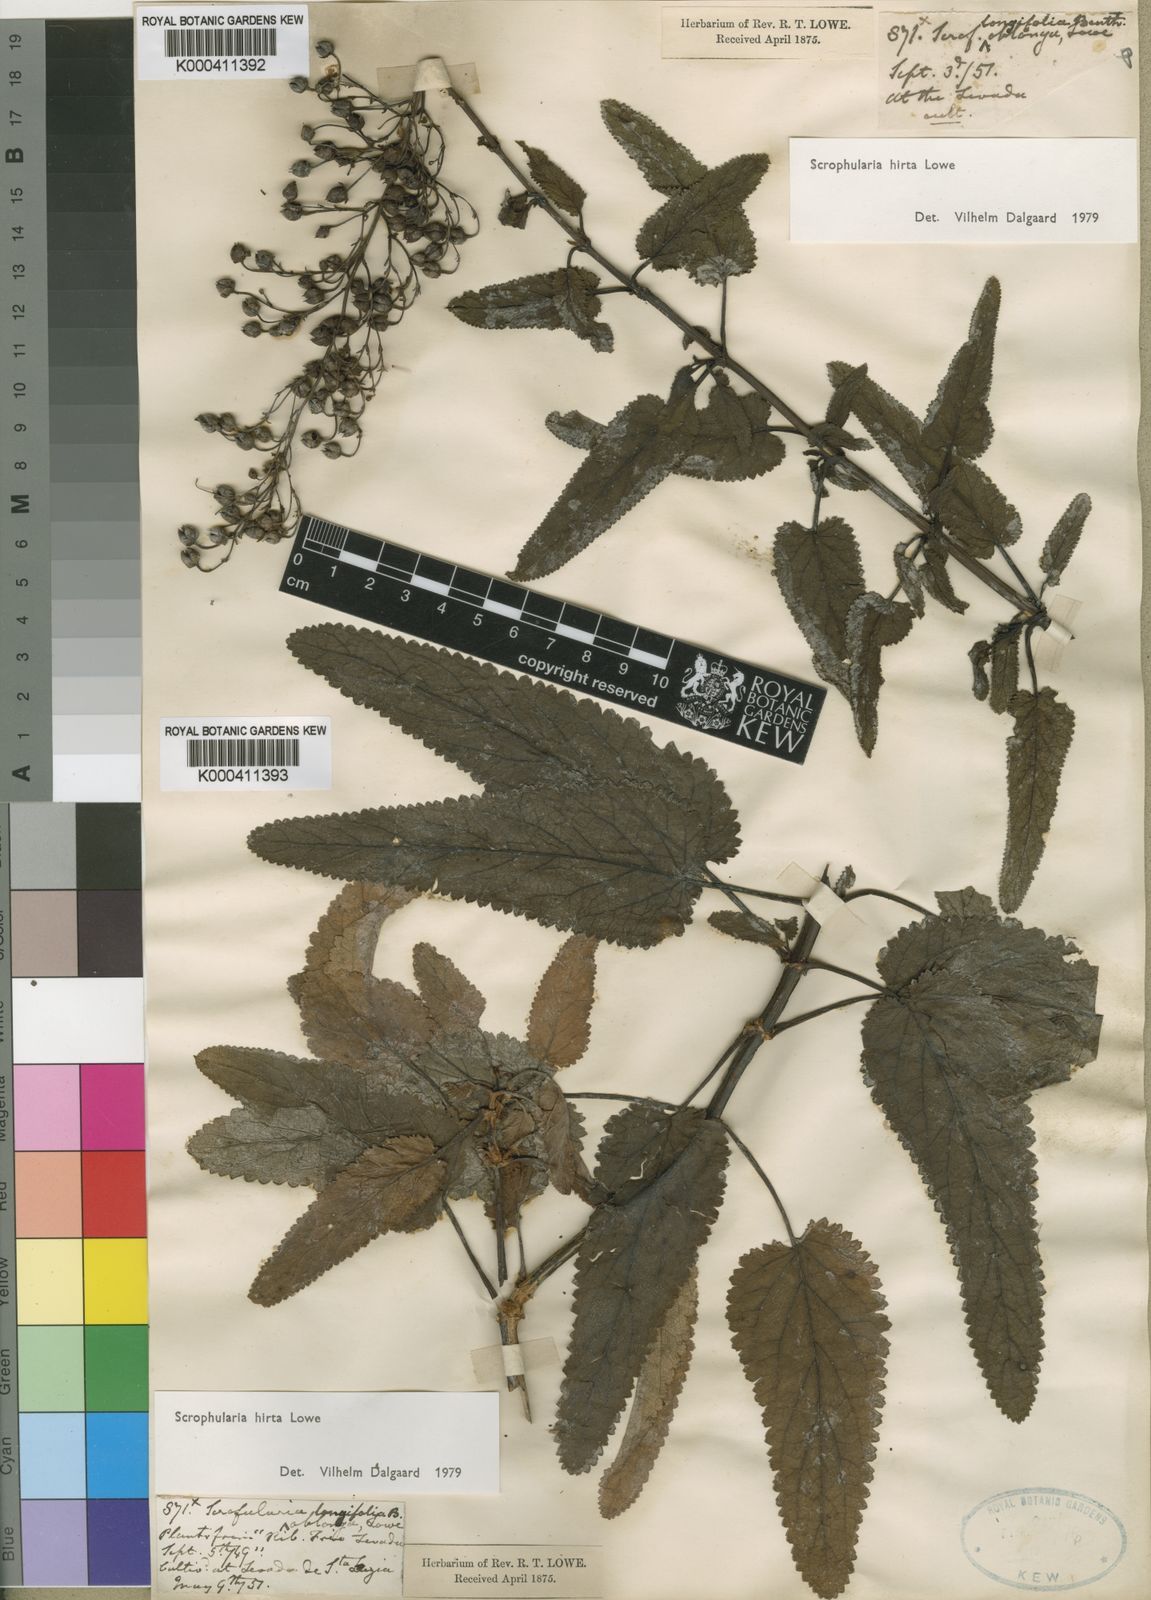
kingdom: Plantae
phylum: Tracheophyta
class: Magnoliopsida
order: Lamiales
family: Scrophulariaceae
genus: Scrophularia
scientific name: Scrophularia hirta
